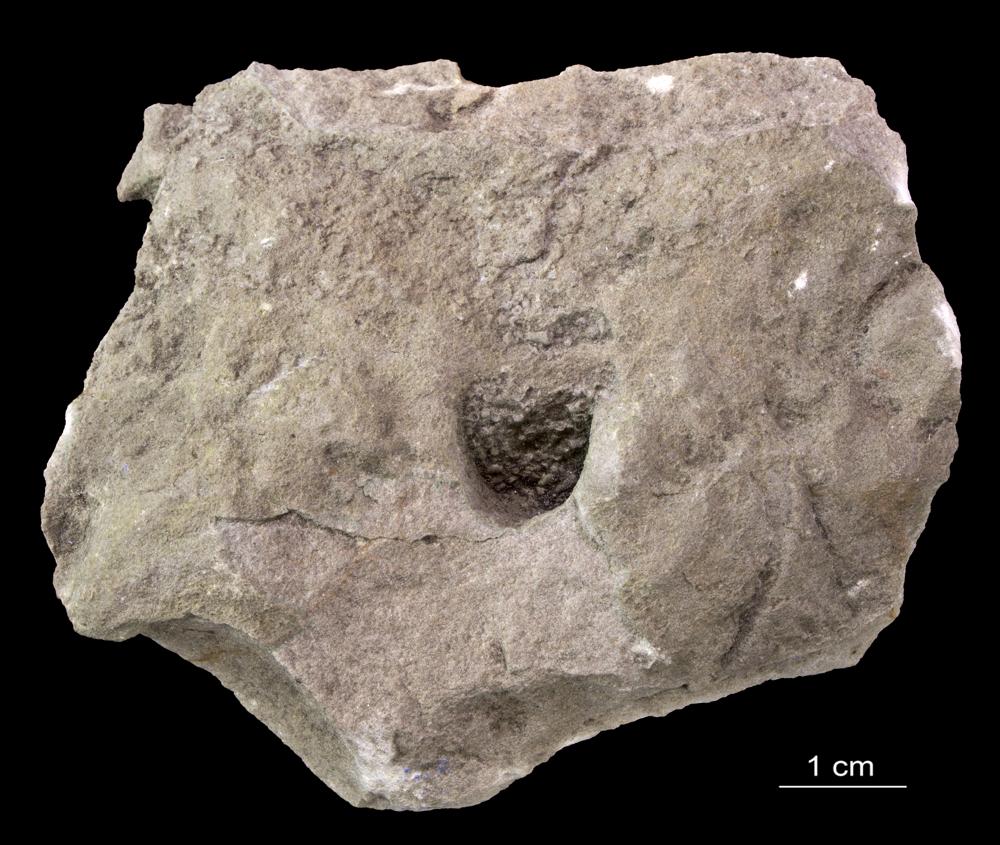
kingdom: Animalia
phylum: Annelida
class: Polychaeta
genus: Volborthella
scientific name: Volborthella tenuis
